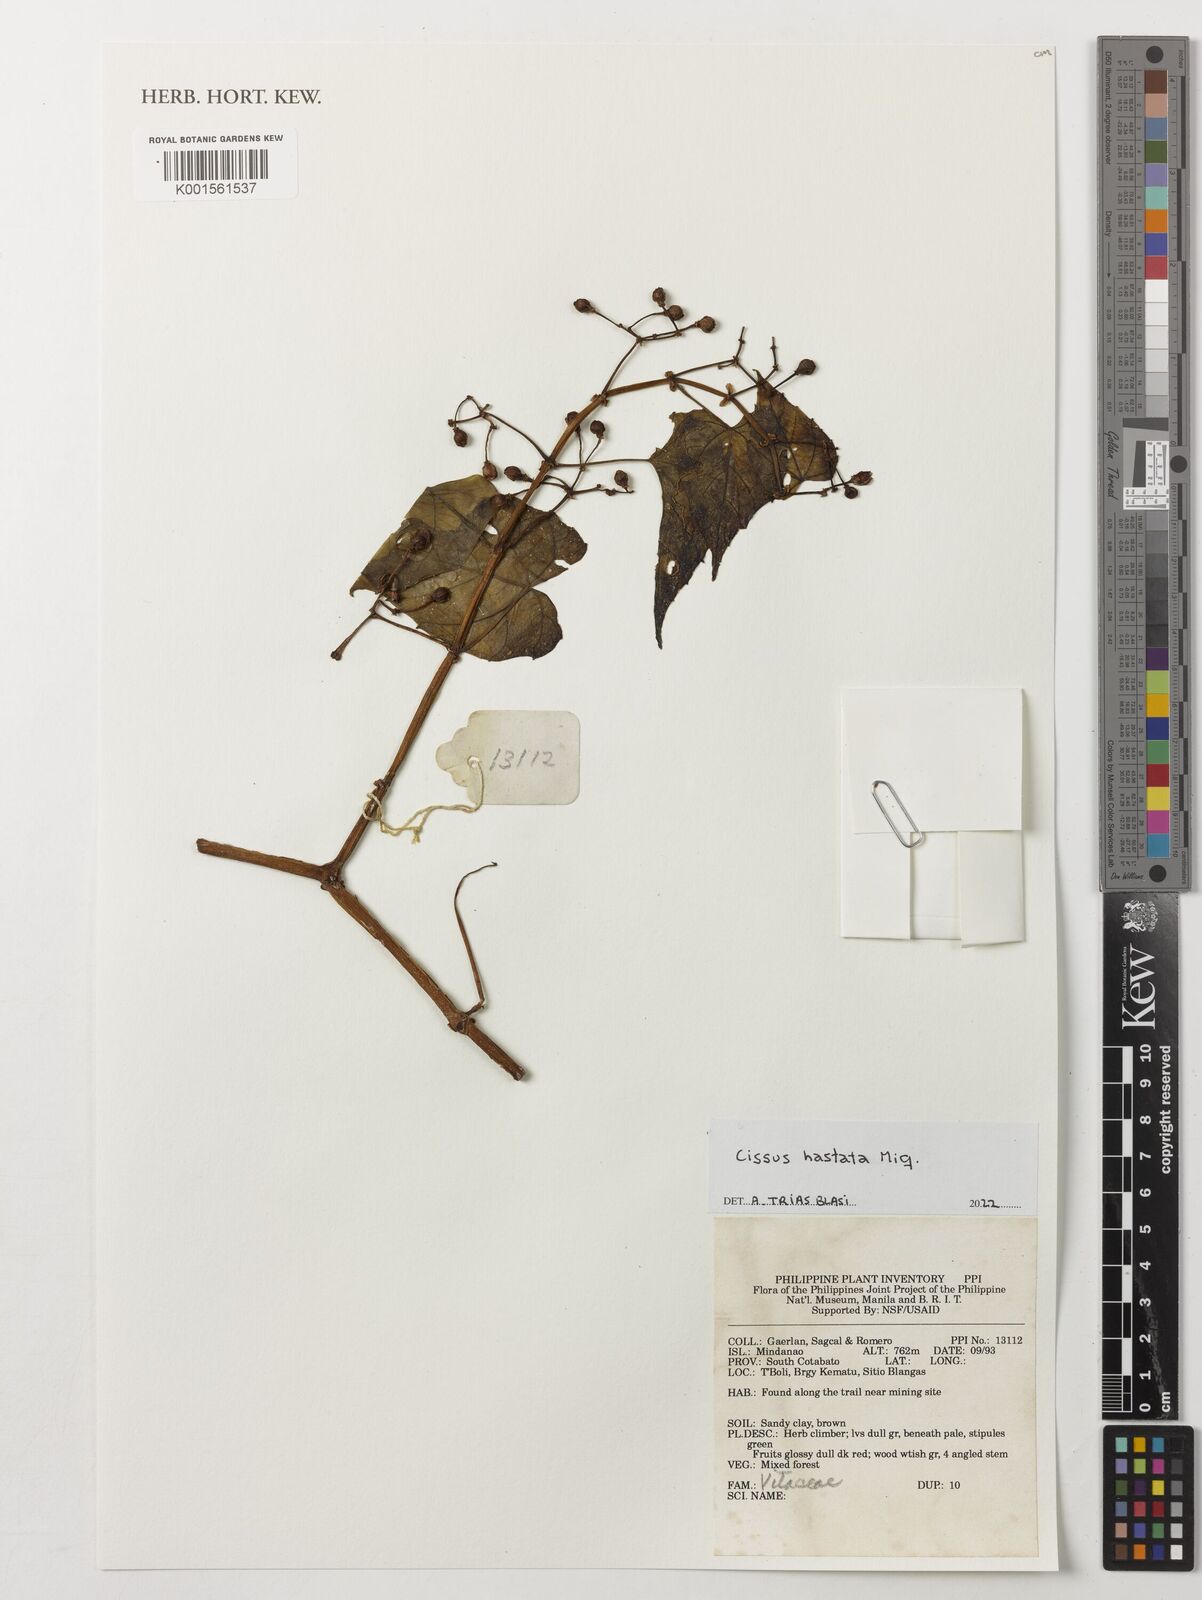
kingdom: Plantae
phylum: Tracheophyta
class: Magnoliopsida
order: Vitales
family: Vitaceae
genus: Cissus
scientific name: Cissus hastata
